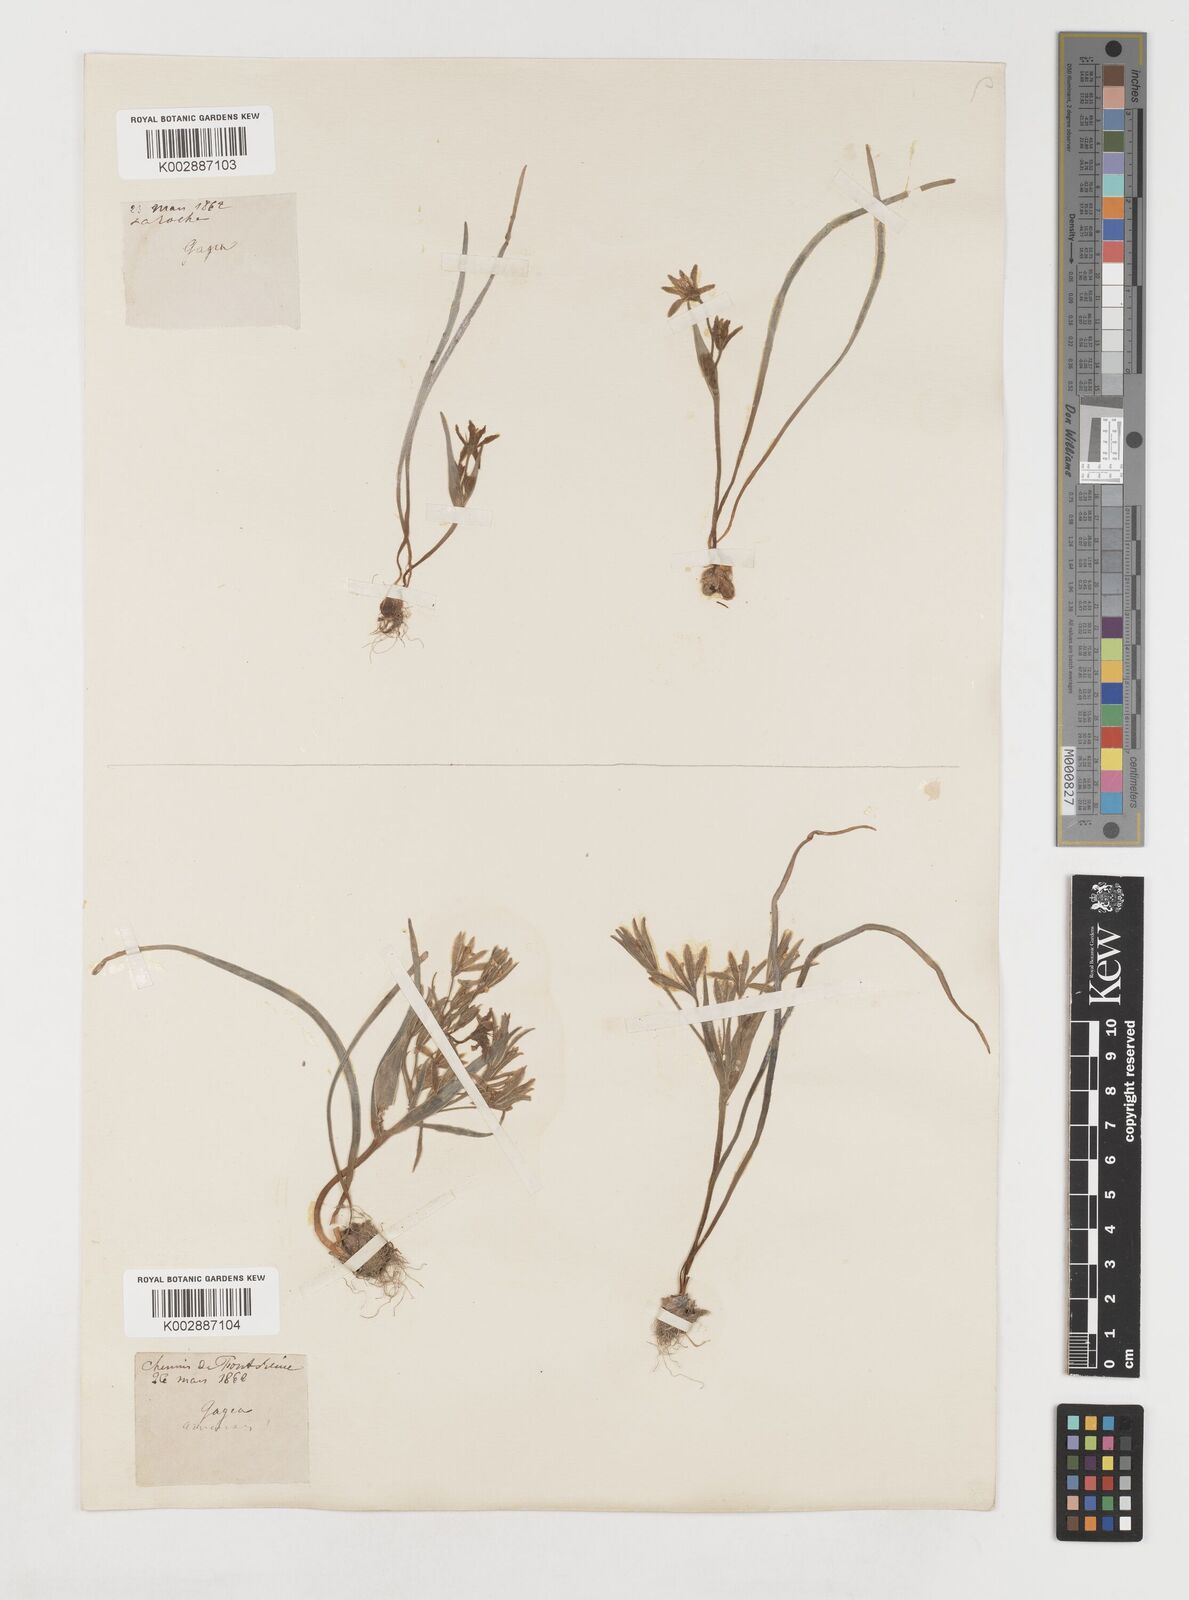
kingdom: Plantae
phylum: Tracheophyta
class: Liliopsida
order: Liliales
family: Liliaceae
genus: Gagea
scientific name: Gagea minima
